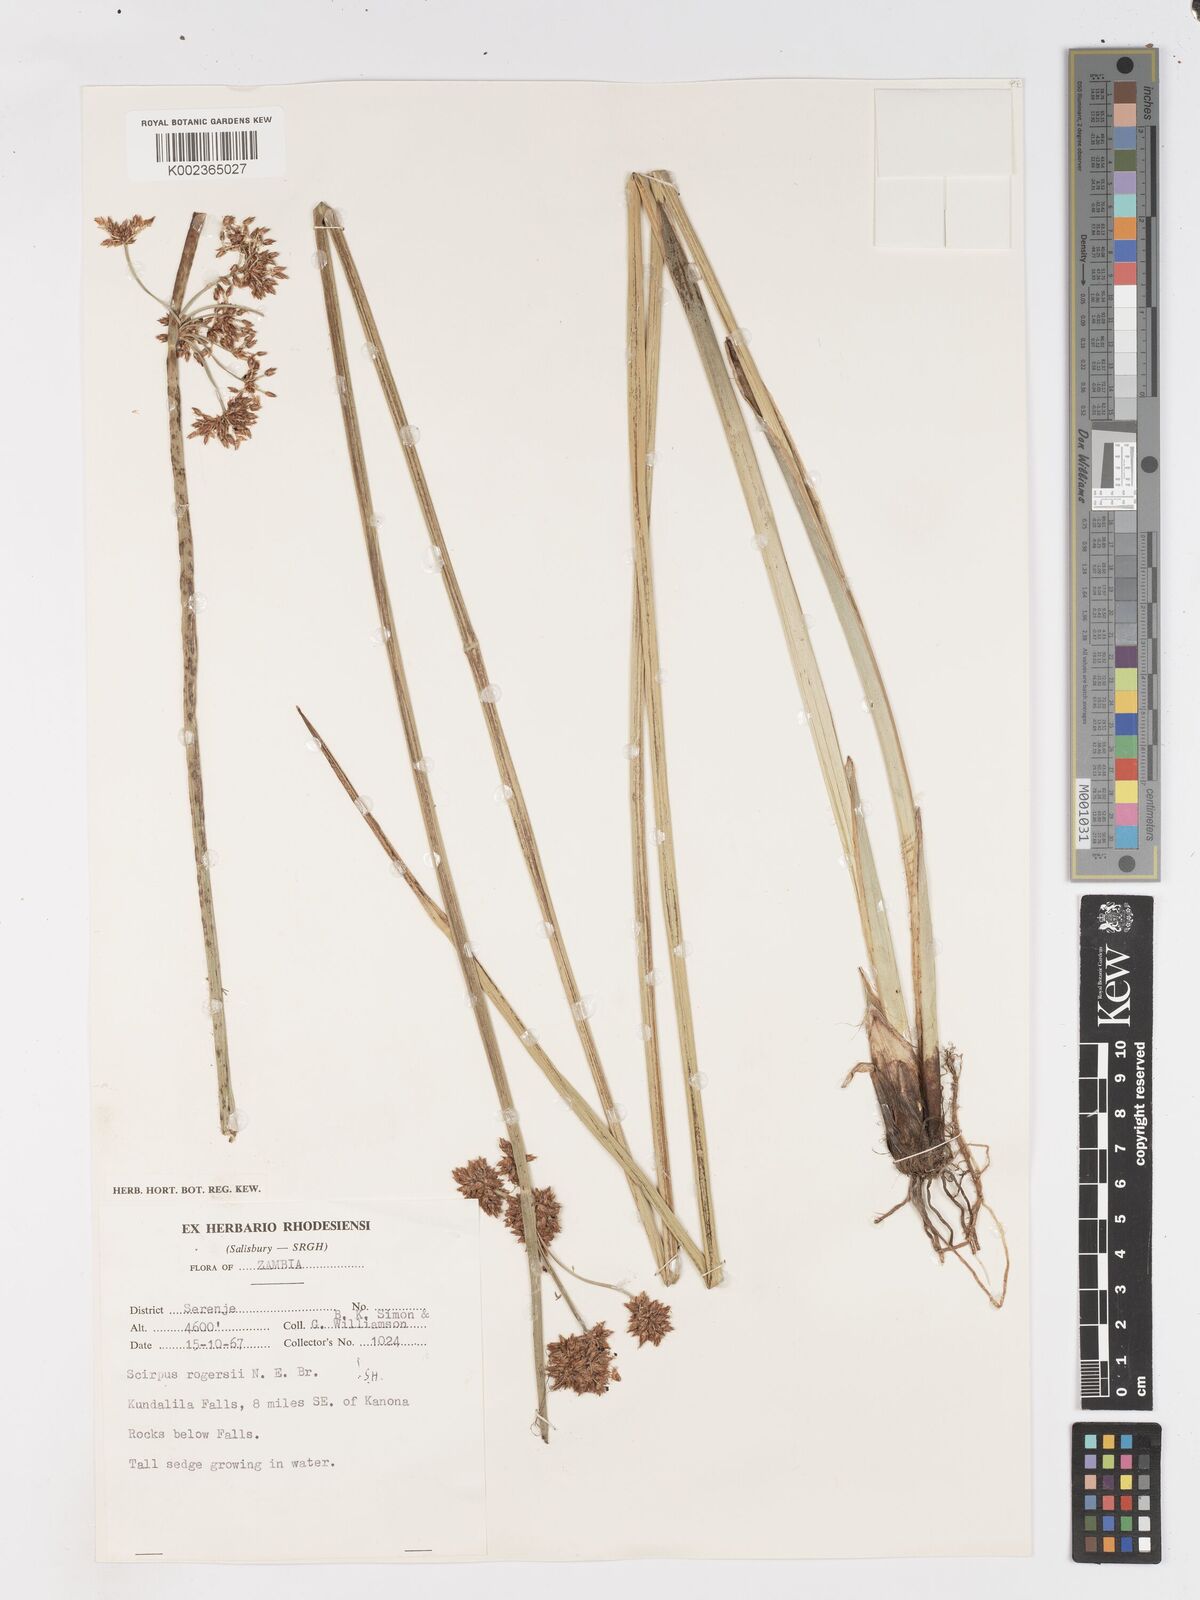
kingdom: Plantae
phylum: Tracheophyta
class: Liliopsida
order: Poales
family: Cyperaceae
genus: Schoenoplectiella
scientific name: Schoenoplectiella rogersii
